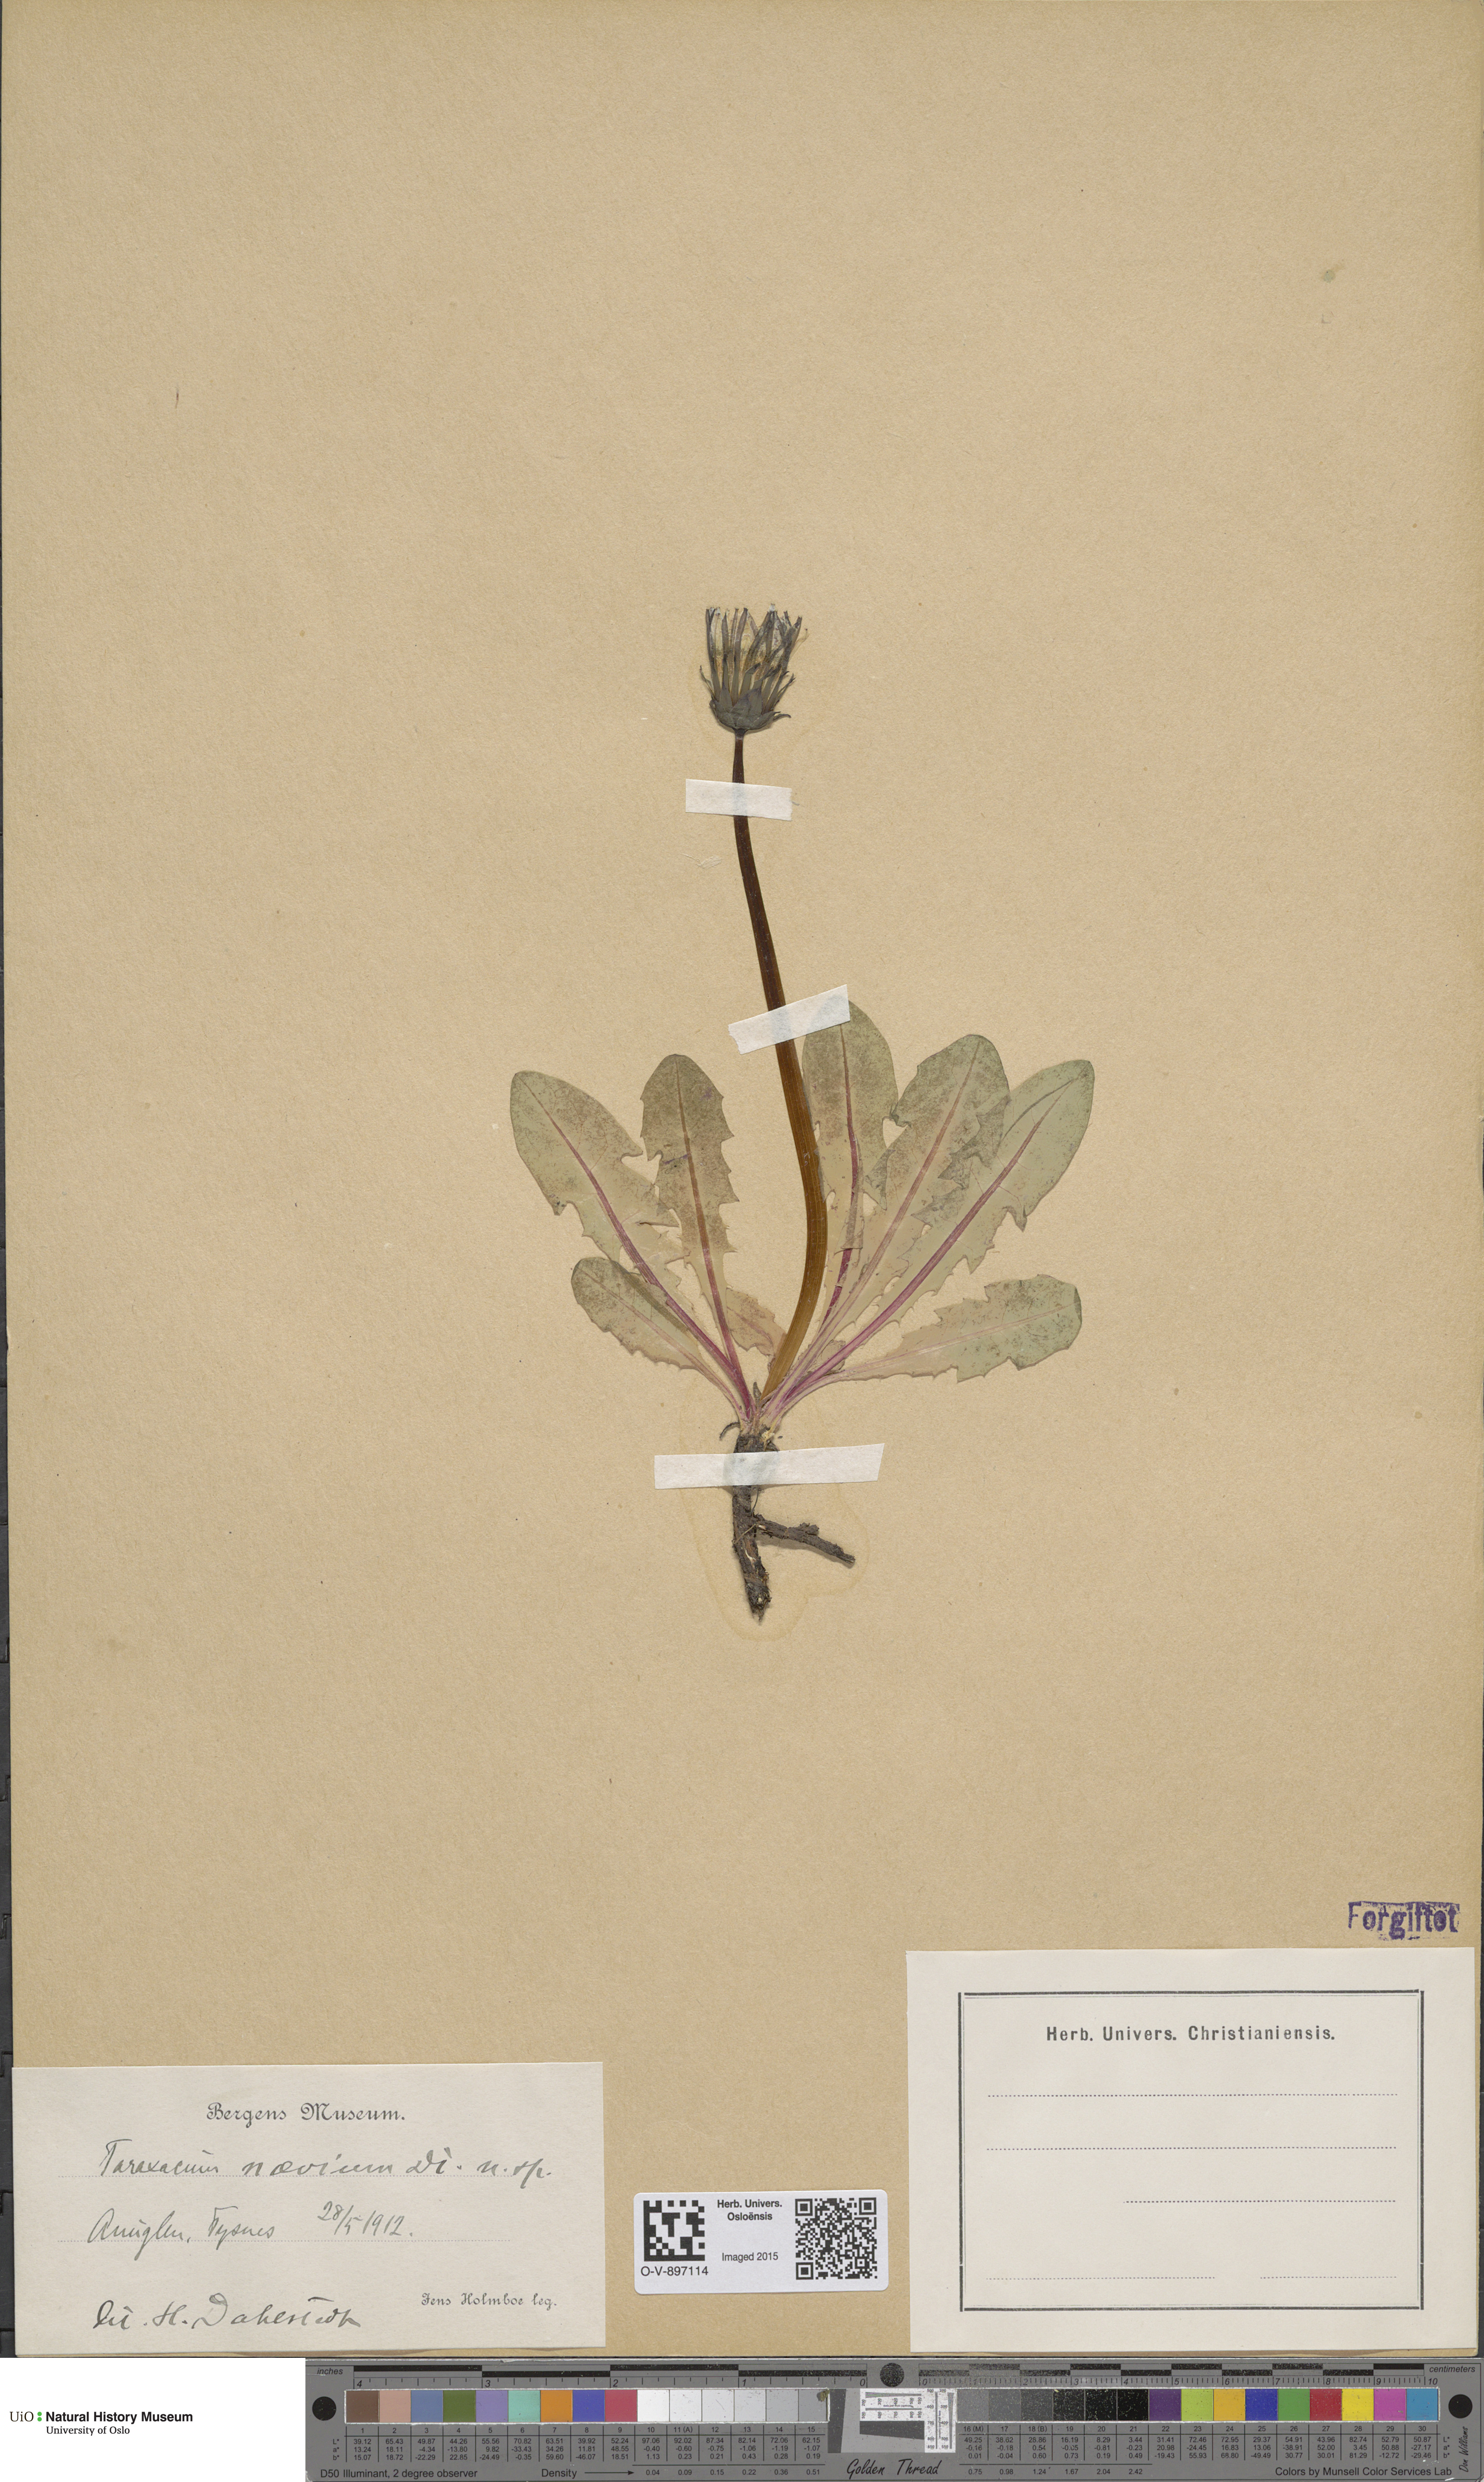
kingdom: Plantae
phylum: Tracheophyta
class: Magnoliopsida
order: Asterales
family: Asteraceae
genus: Taraxacum
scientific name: Taraxacum stictophyllum
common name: Stiff-leaved dandelion
